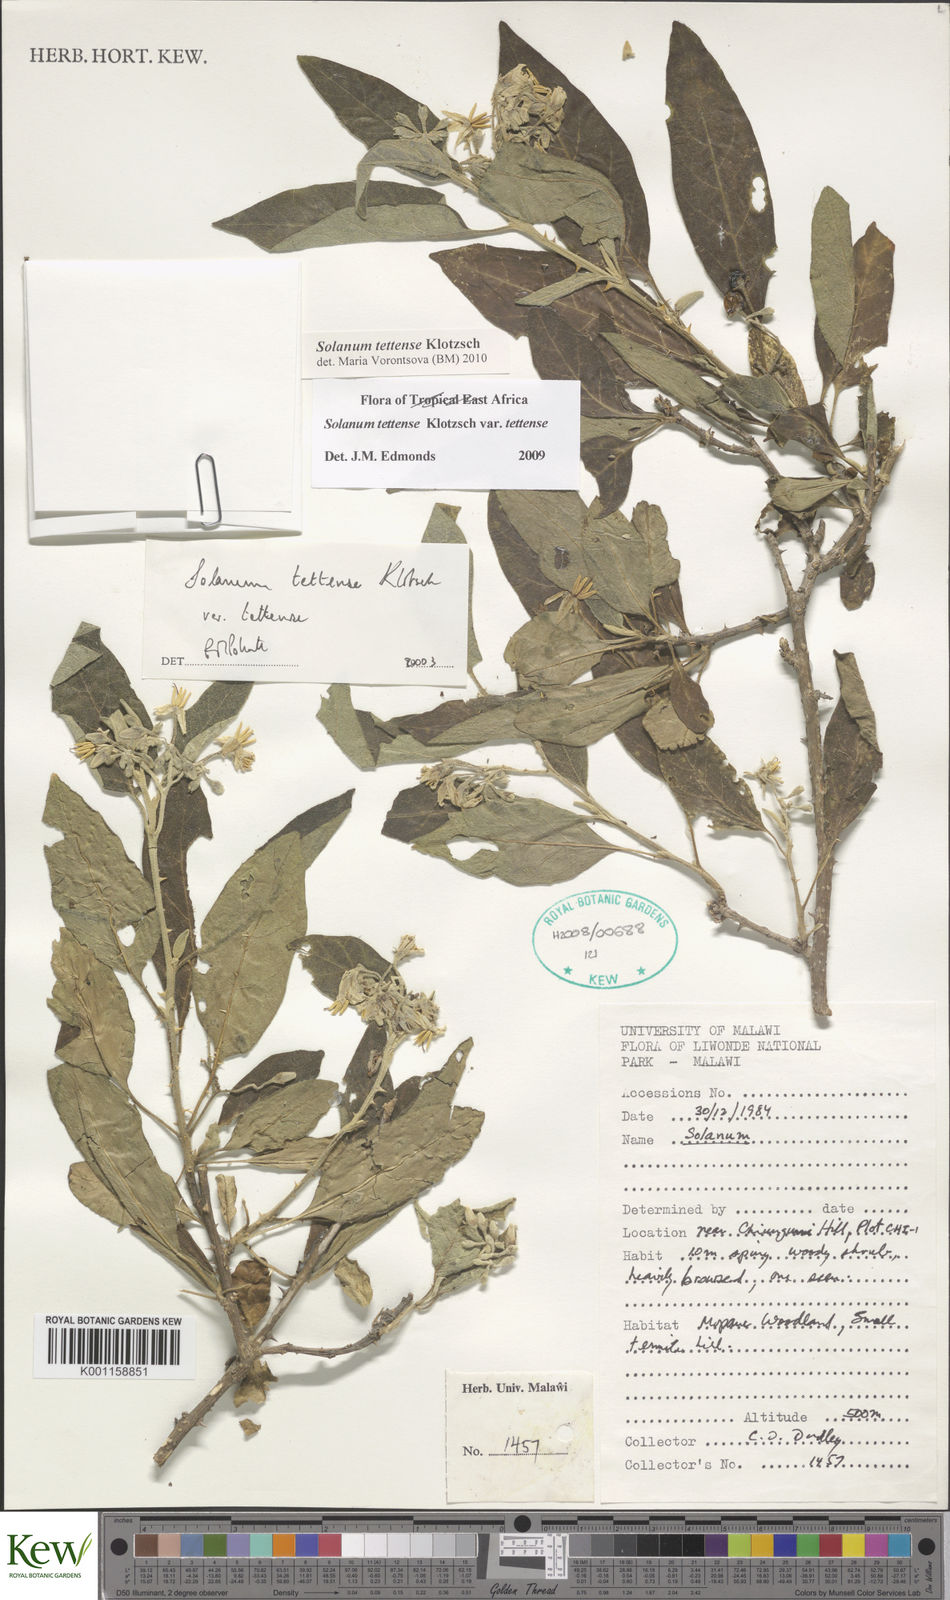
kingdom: Plantae
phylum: Tracheophyta
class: Magnoliopsida
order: Solanales
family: Solanaceae
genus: Solanum
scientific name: Solanum tettense
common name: Mozambique bitter apple
